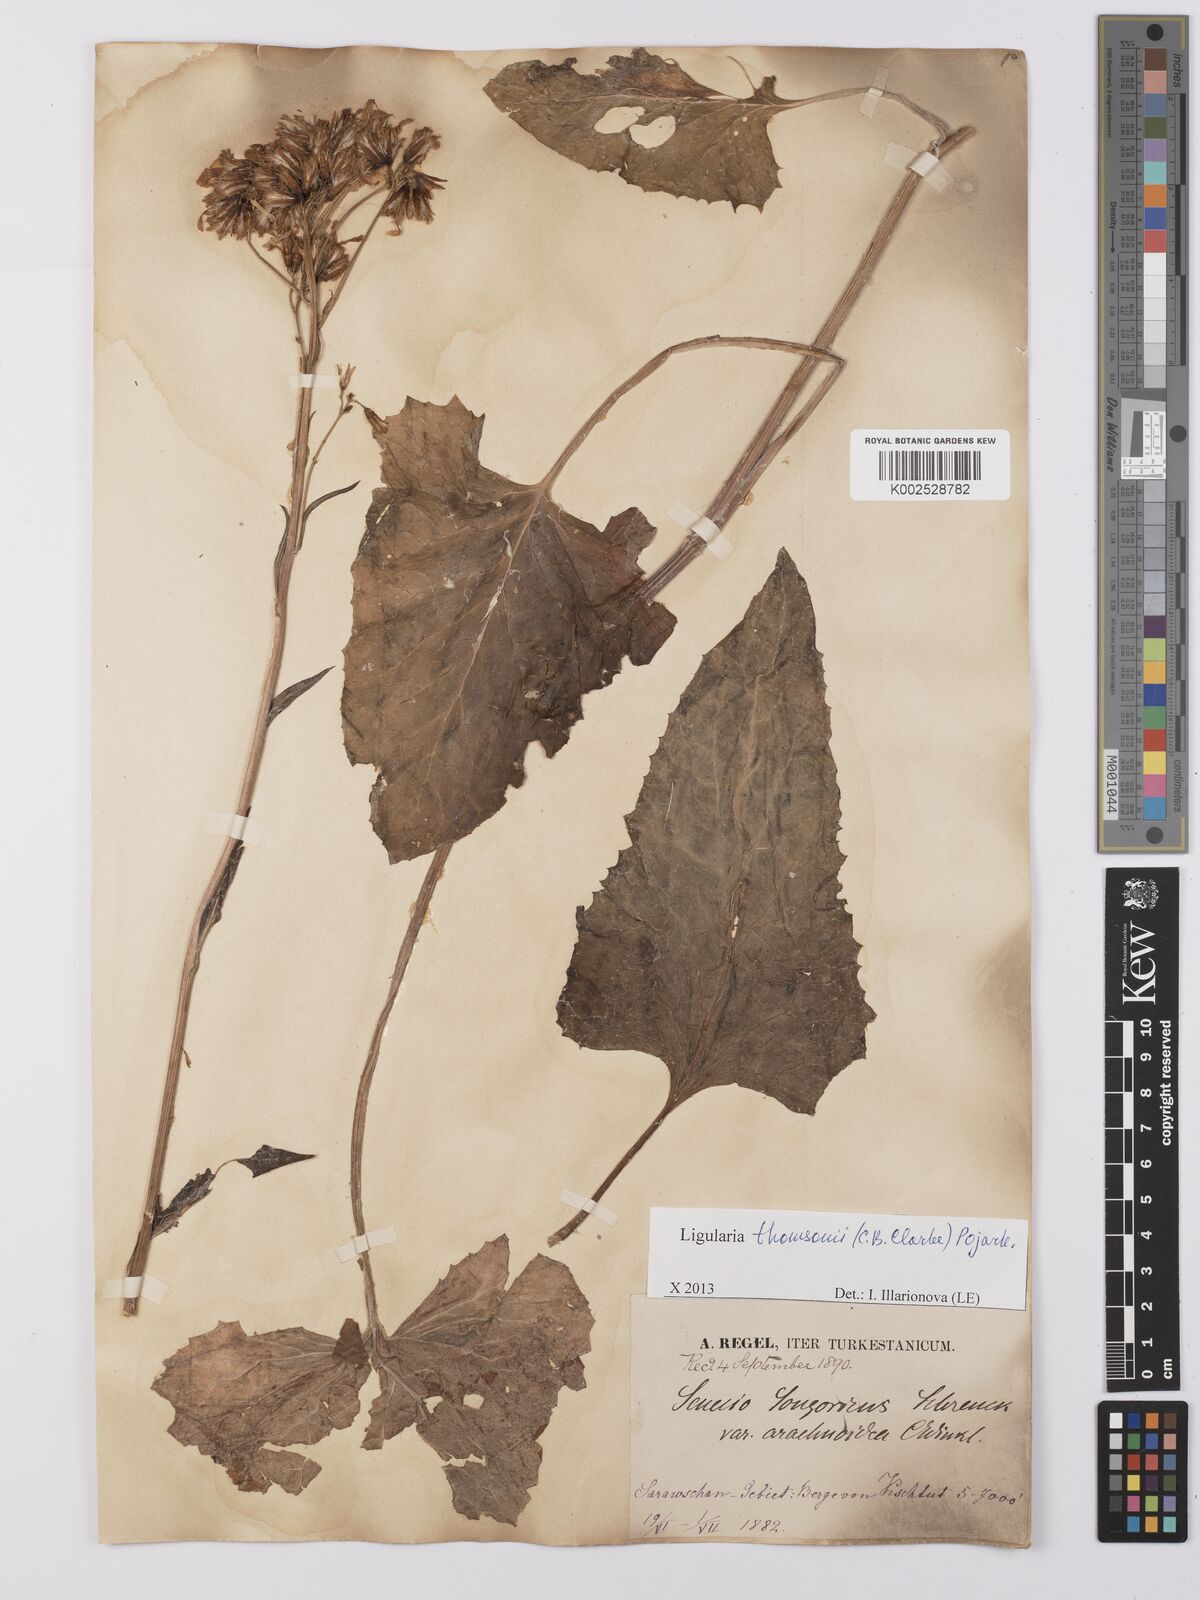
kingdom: Plantae
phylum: Tracheophyta
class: Magnoliopsida
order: Asterales
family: Asteraceae
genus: Vickifunkia
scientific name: Vickifunkia thomsonii
